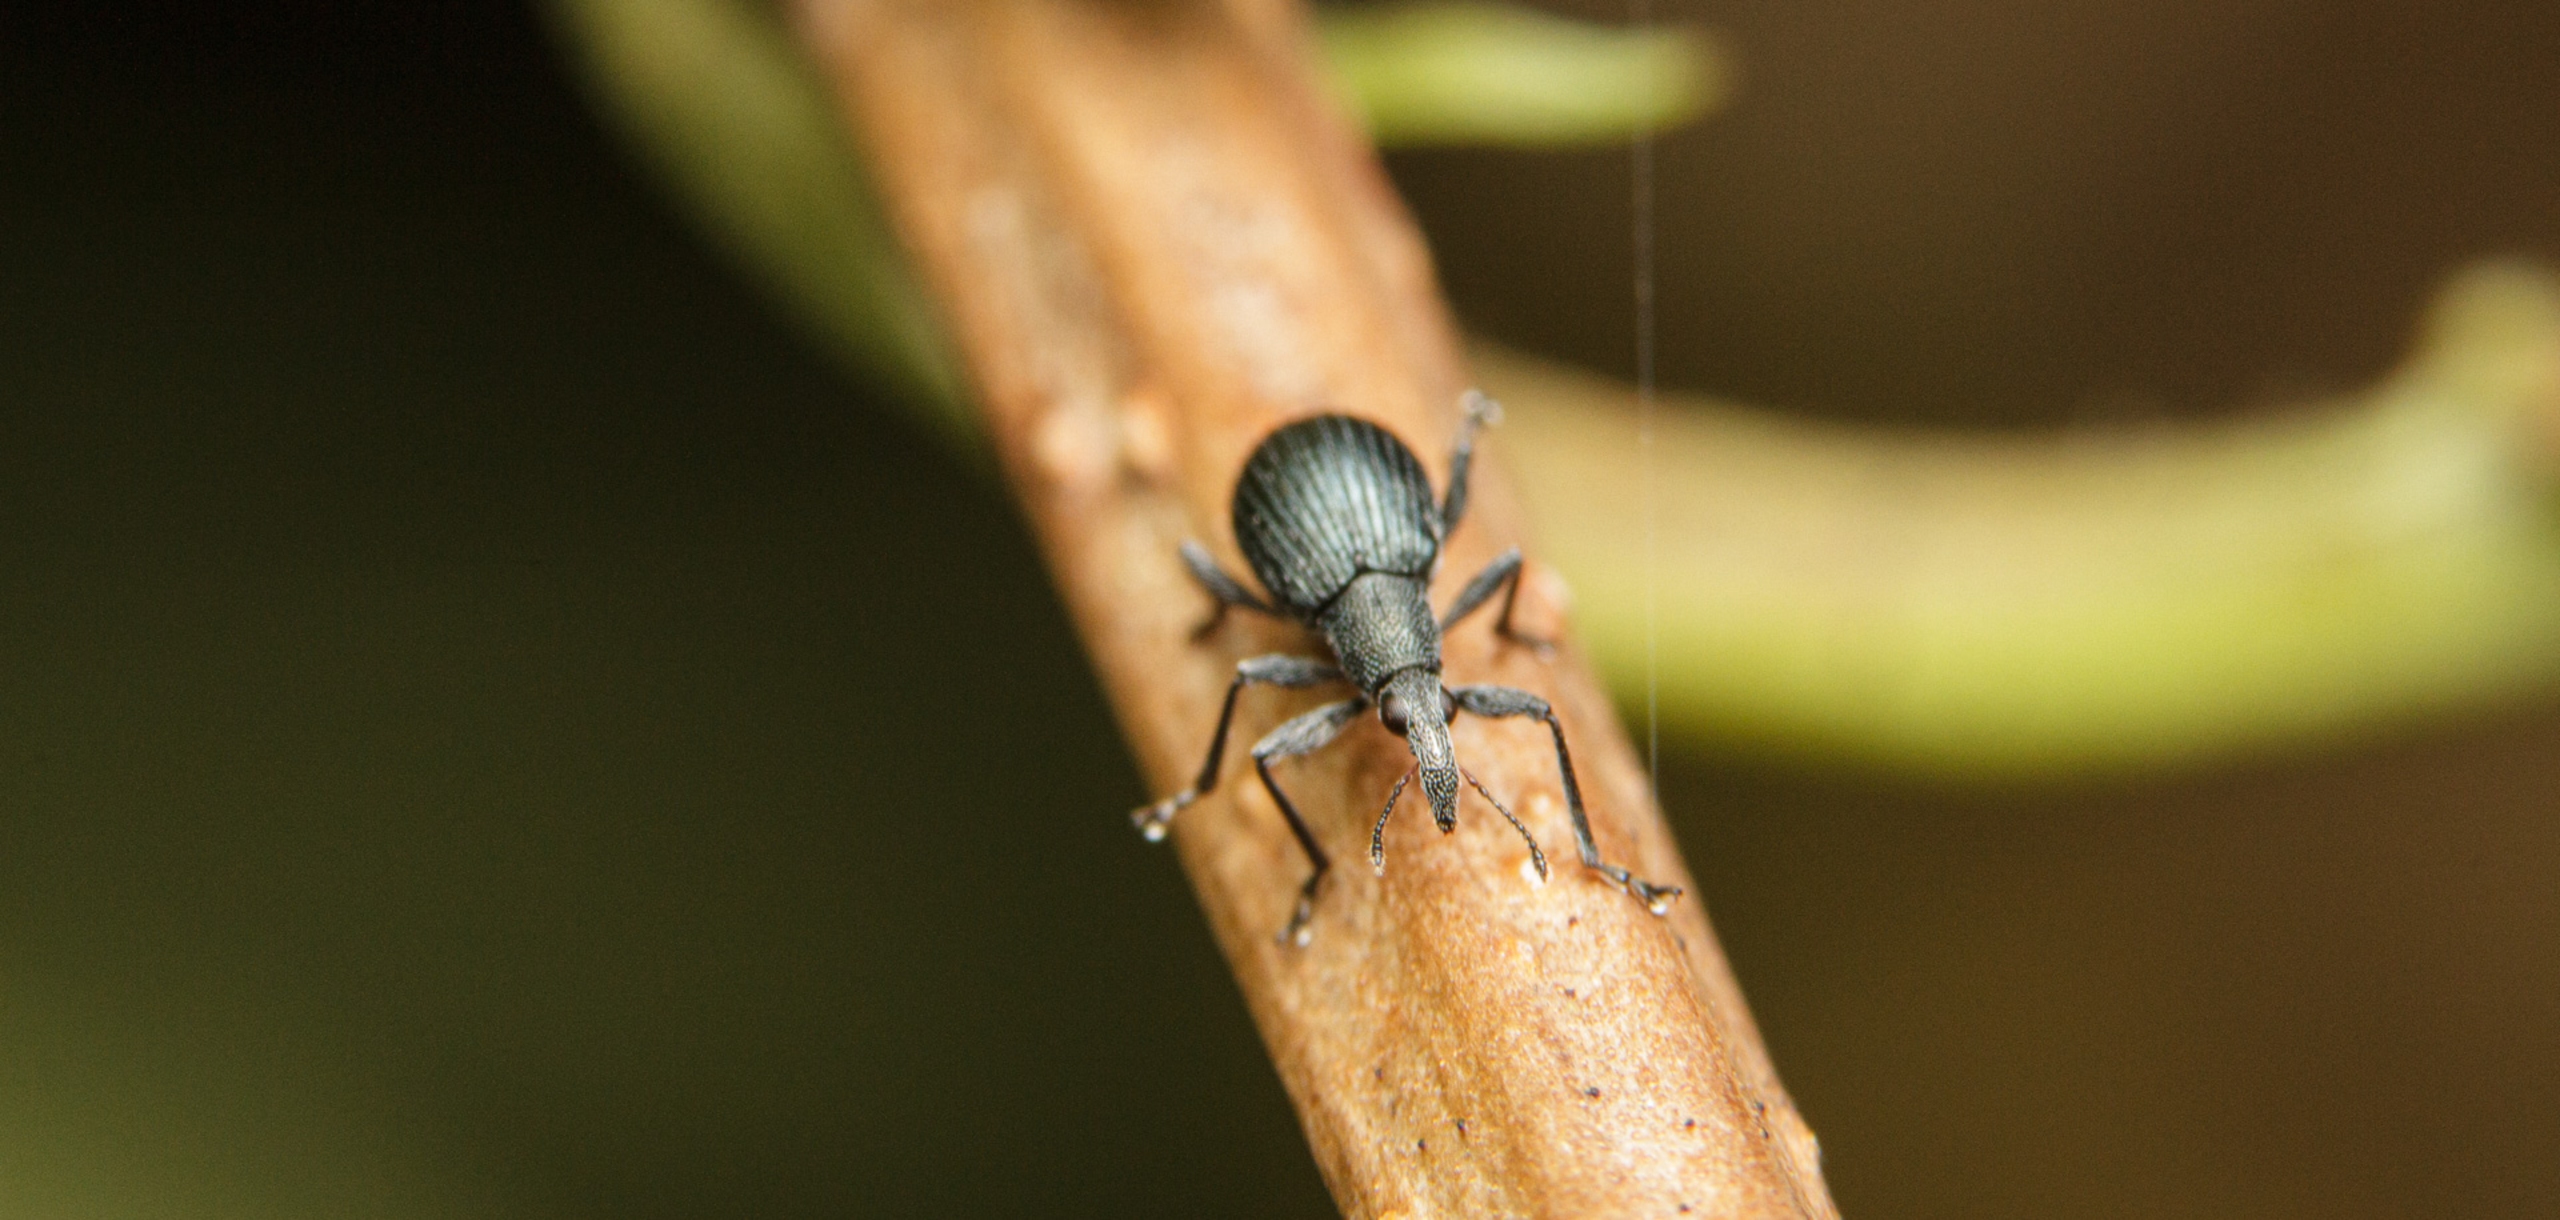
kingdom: Animalia
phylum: Arthropoda
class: Insecta
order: Coleoptera
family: Apionidae
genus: Oxystoma
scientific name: Oxystoma pomonae
